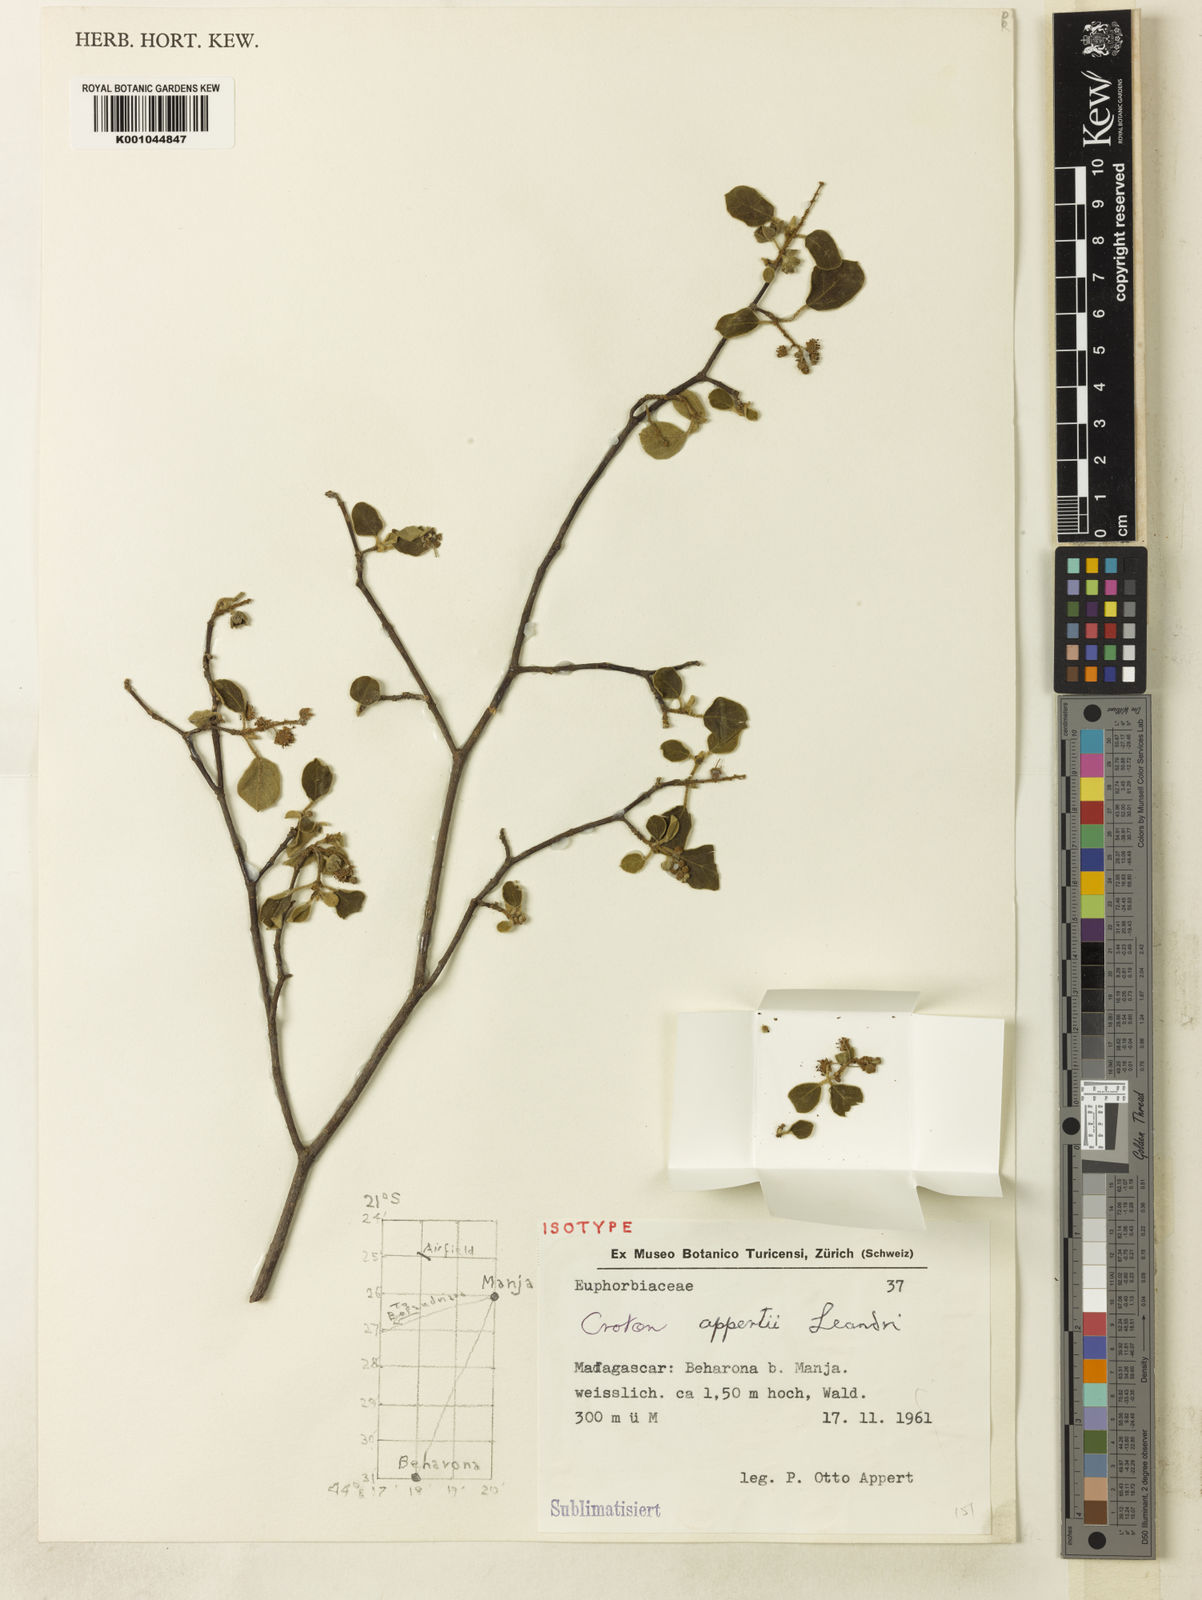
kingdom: Plantae
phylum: Tracheophyta
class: Magnoliopsida
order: Malpighiales
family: Euphorbiaceae
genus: Croton
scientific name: Croton
